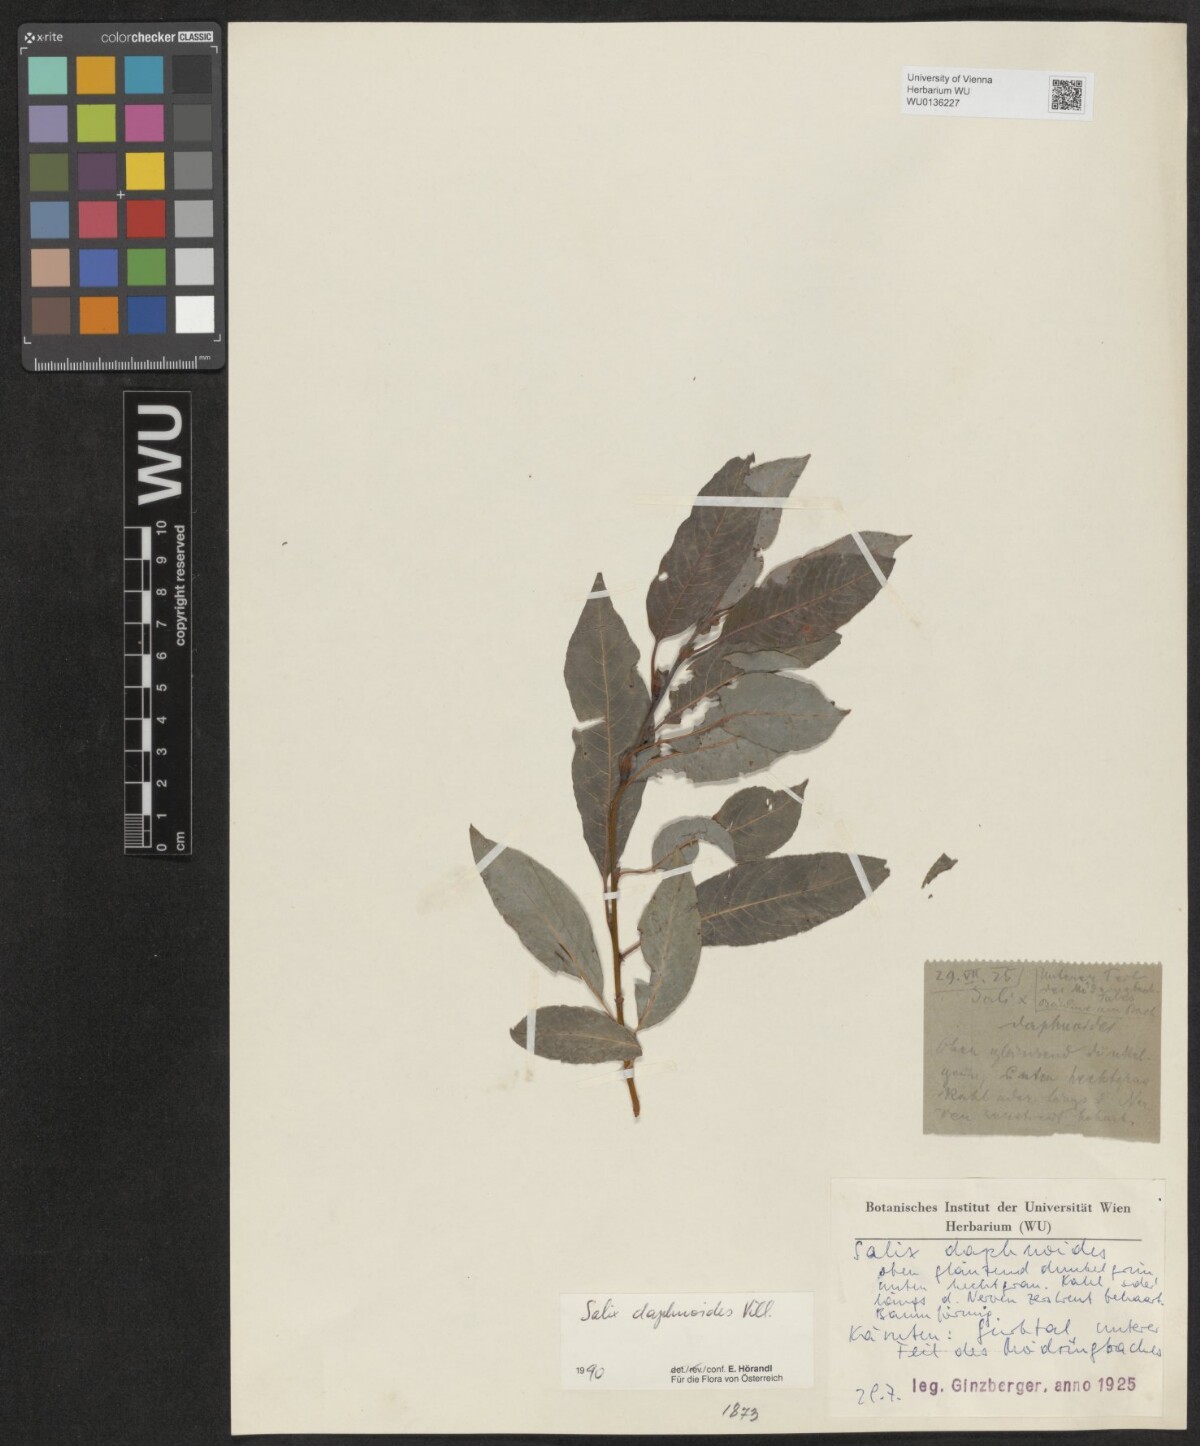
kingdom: Plantae
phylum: Tracheophyta
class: Magnoliopsida
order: Malpighiales
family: Salicaceae
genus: Salix
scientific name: Salix daphnoides
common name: European violet-willow
